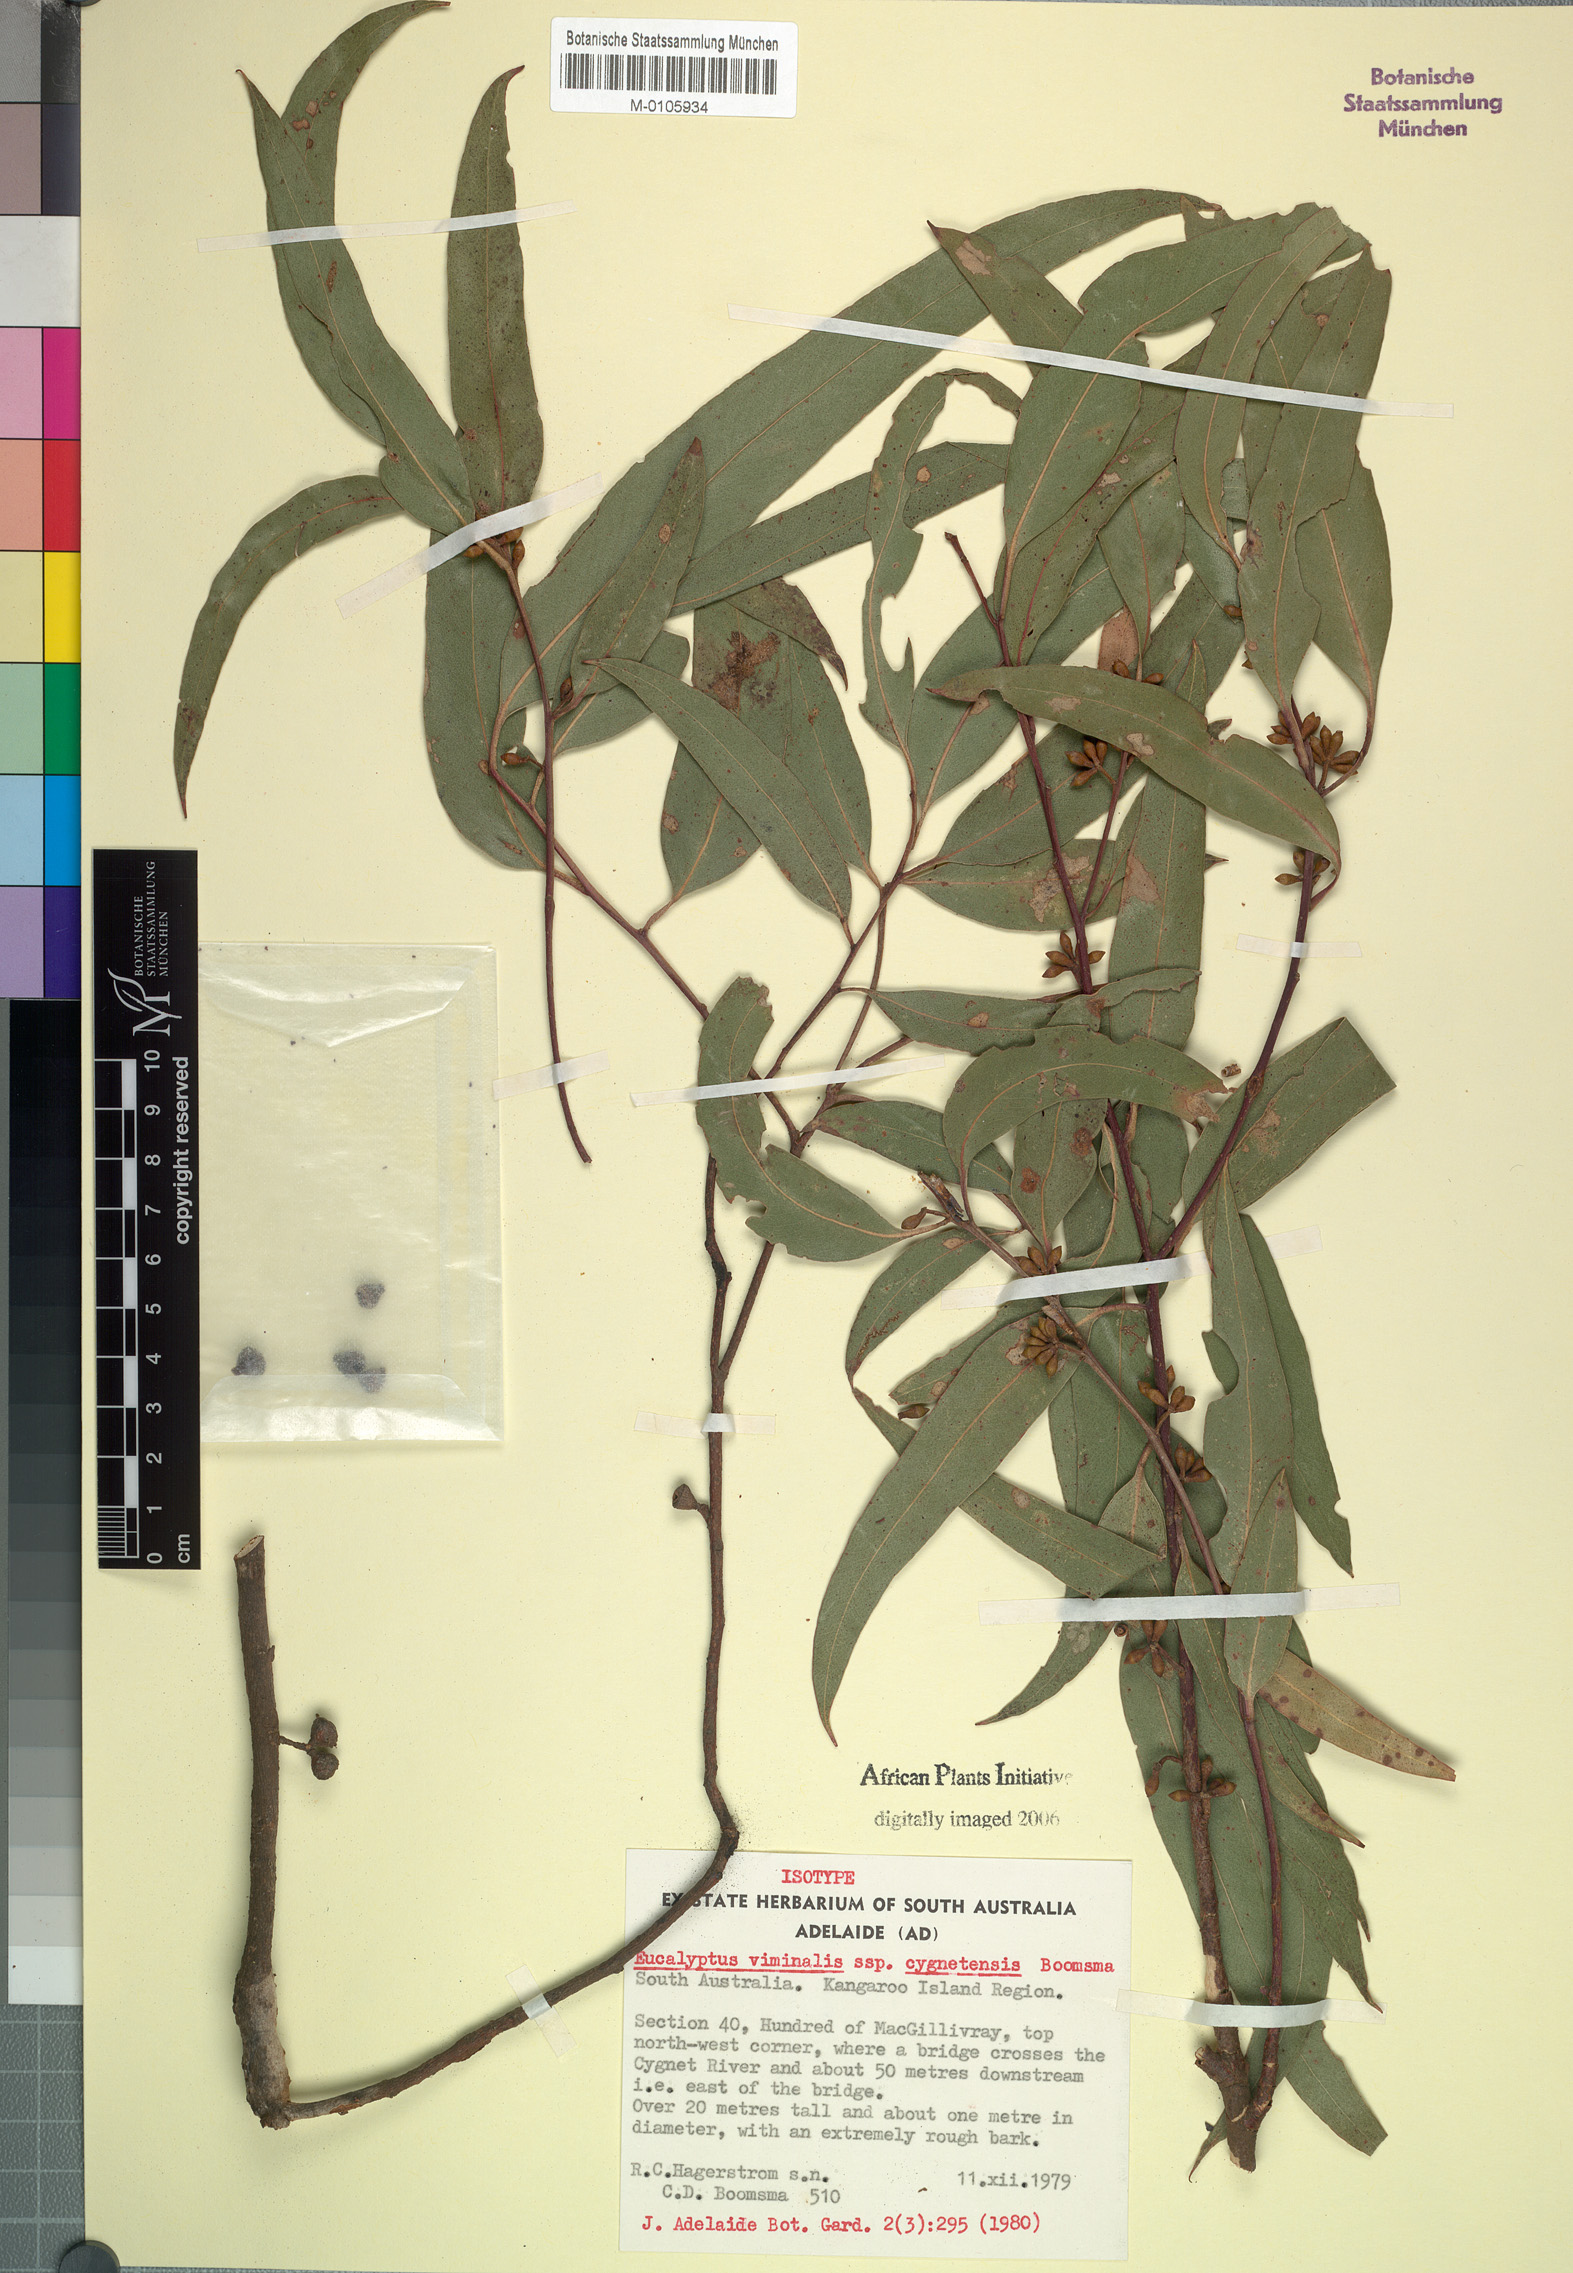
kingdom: Plantae
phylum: Tracheophyta
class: Magnoliopsida
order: Myrtales
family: Myrtaceae
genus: Eucalyptus
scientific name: Eucalyptus viminalis
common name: Manna gum
